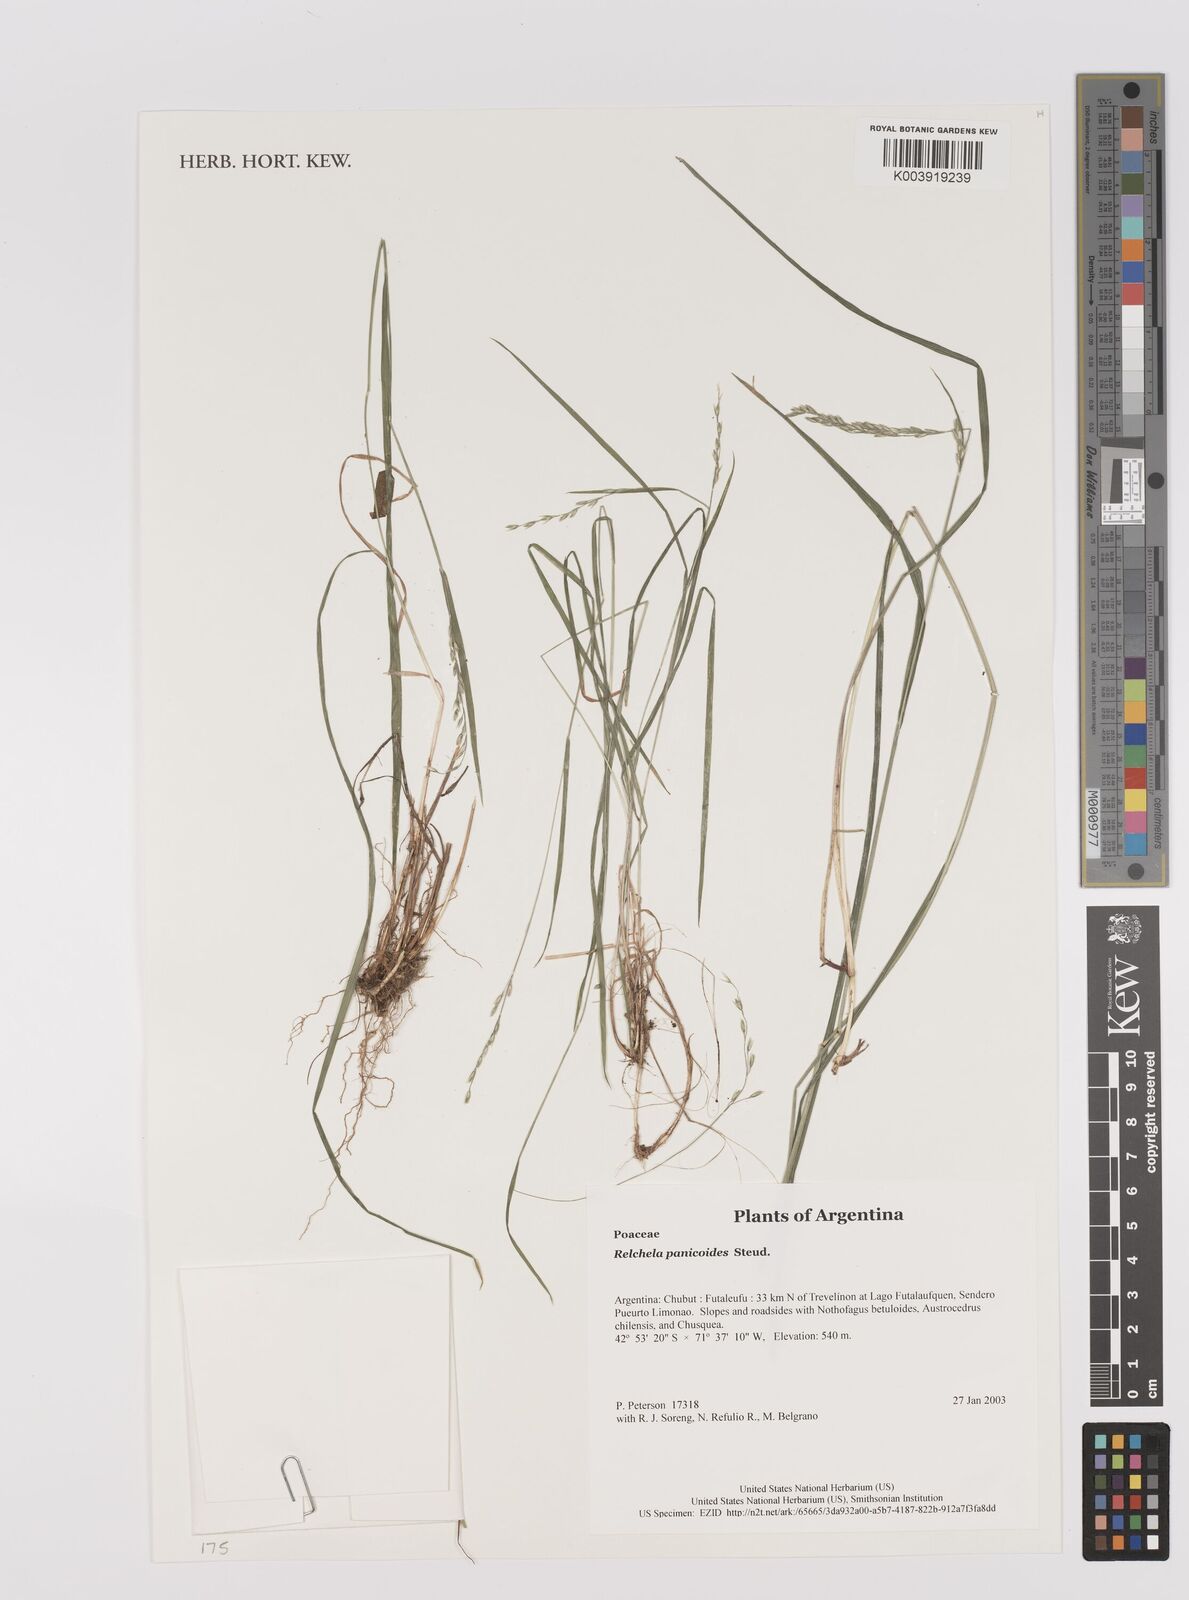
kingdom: Plantae
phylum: Tracheophyta
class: Liliopsida
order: Poales
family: Poaceae
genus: Relchela
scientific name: Relchela panicoides
